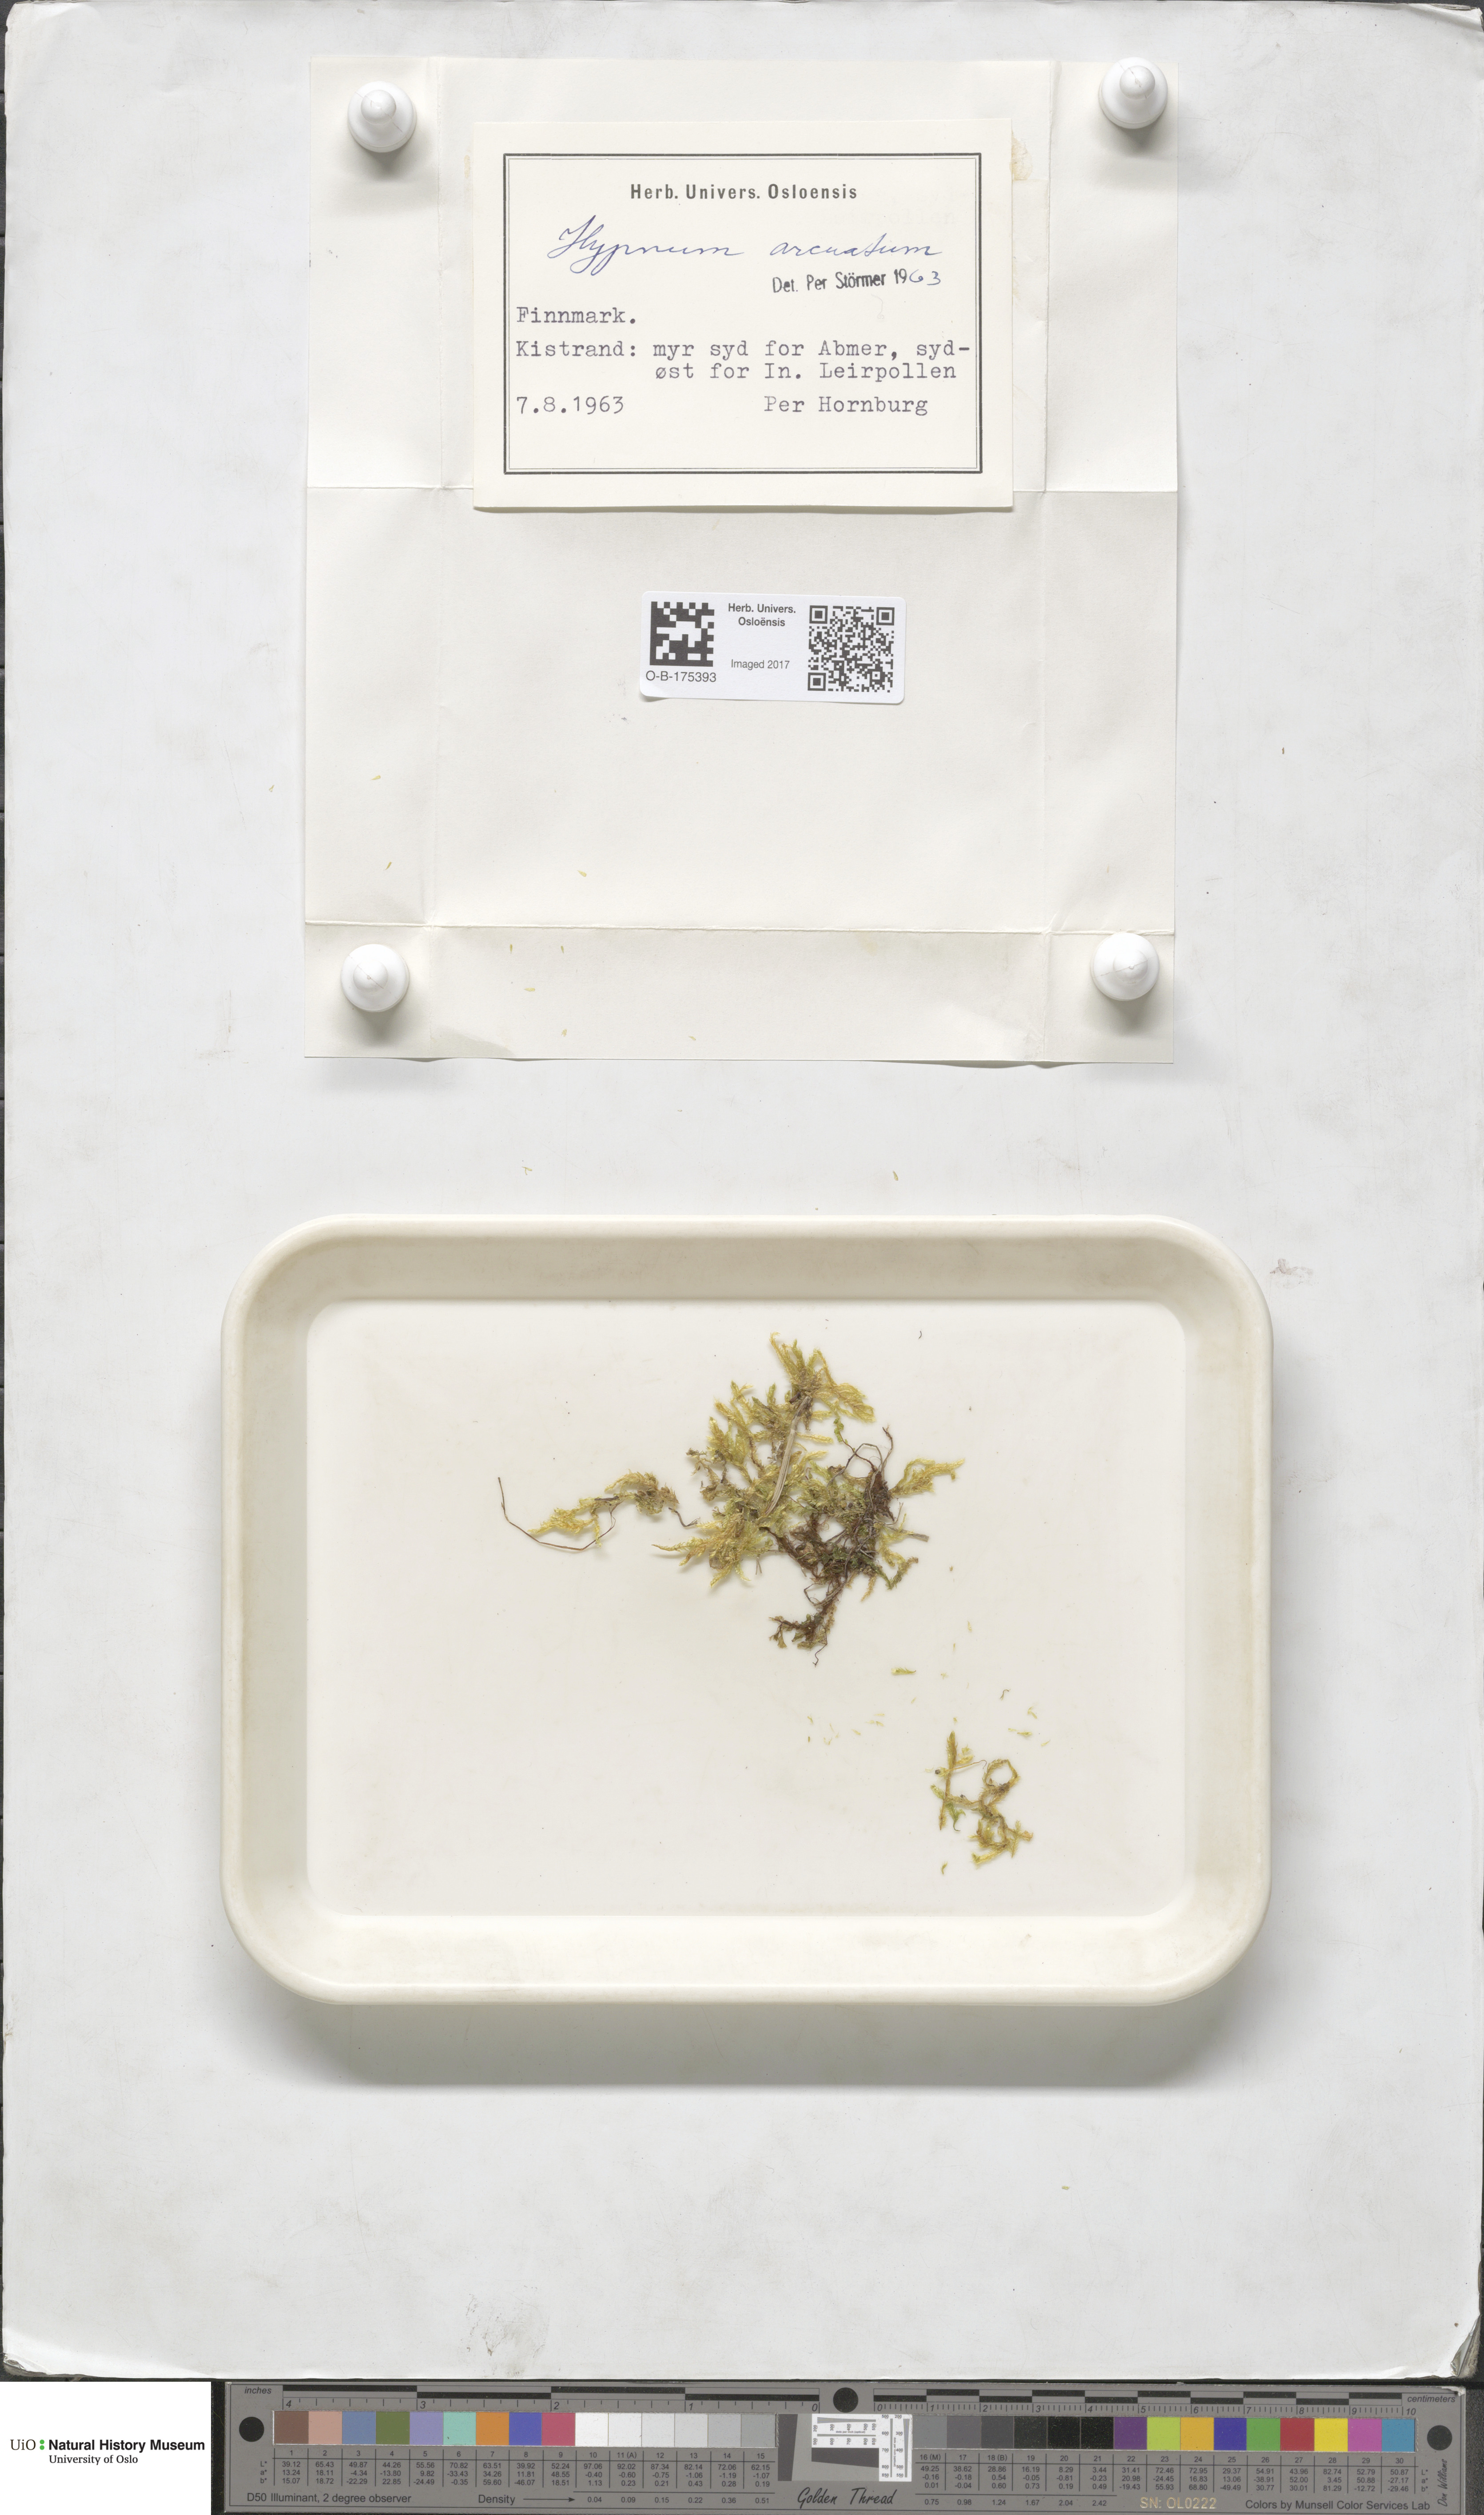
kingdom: Plantae
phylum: Bryophyta
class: Bryopsida
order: Hypnales
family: Pylaisiaceae
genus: Calliergonella
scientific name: Calliergonella lindbergii
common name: Lindberg's plait-moss
